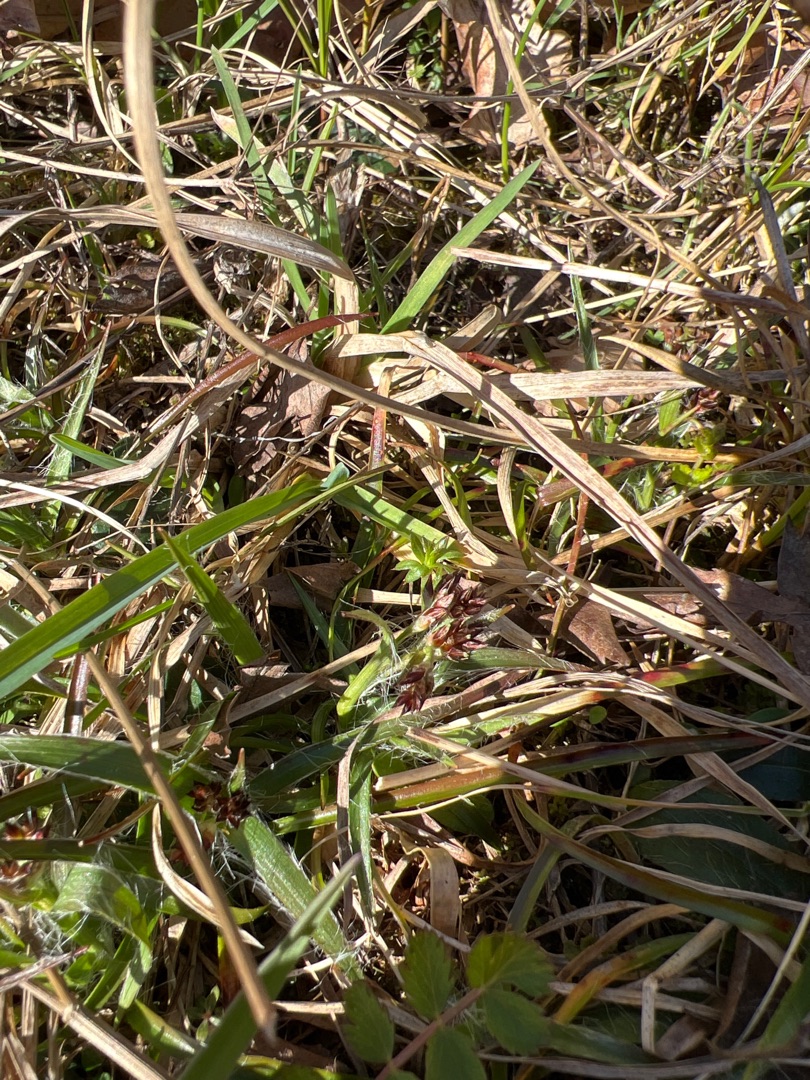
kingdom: Plantae
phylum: Tracheophyta
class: Liliopsida
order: Poales
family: Juncaceae
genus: Luzula
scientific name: Luzula campestris
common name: Mark-frytle
